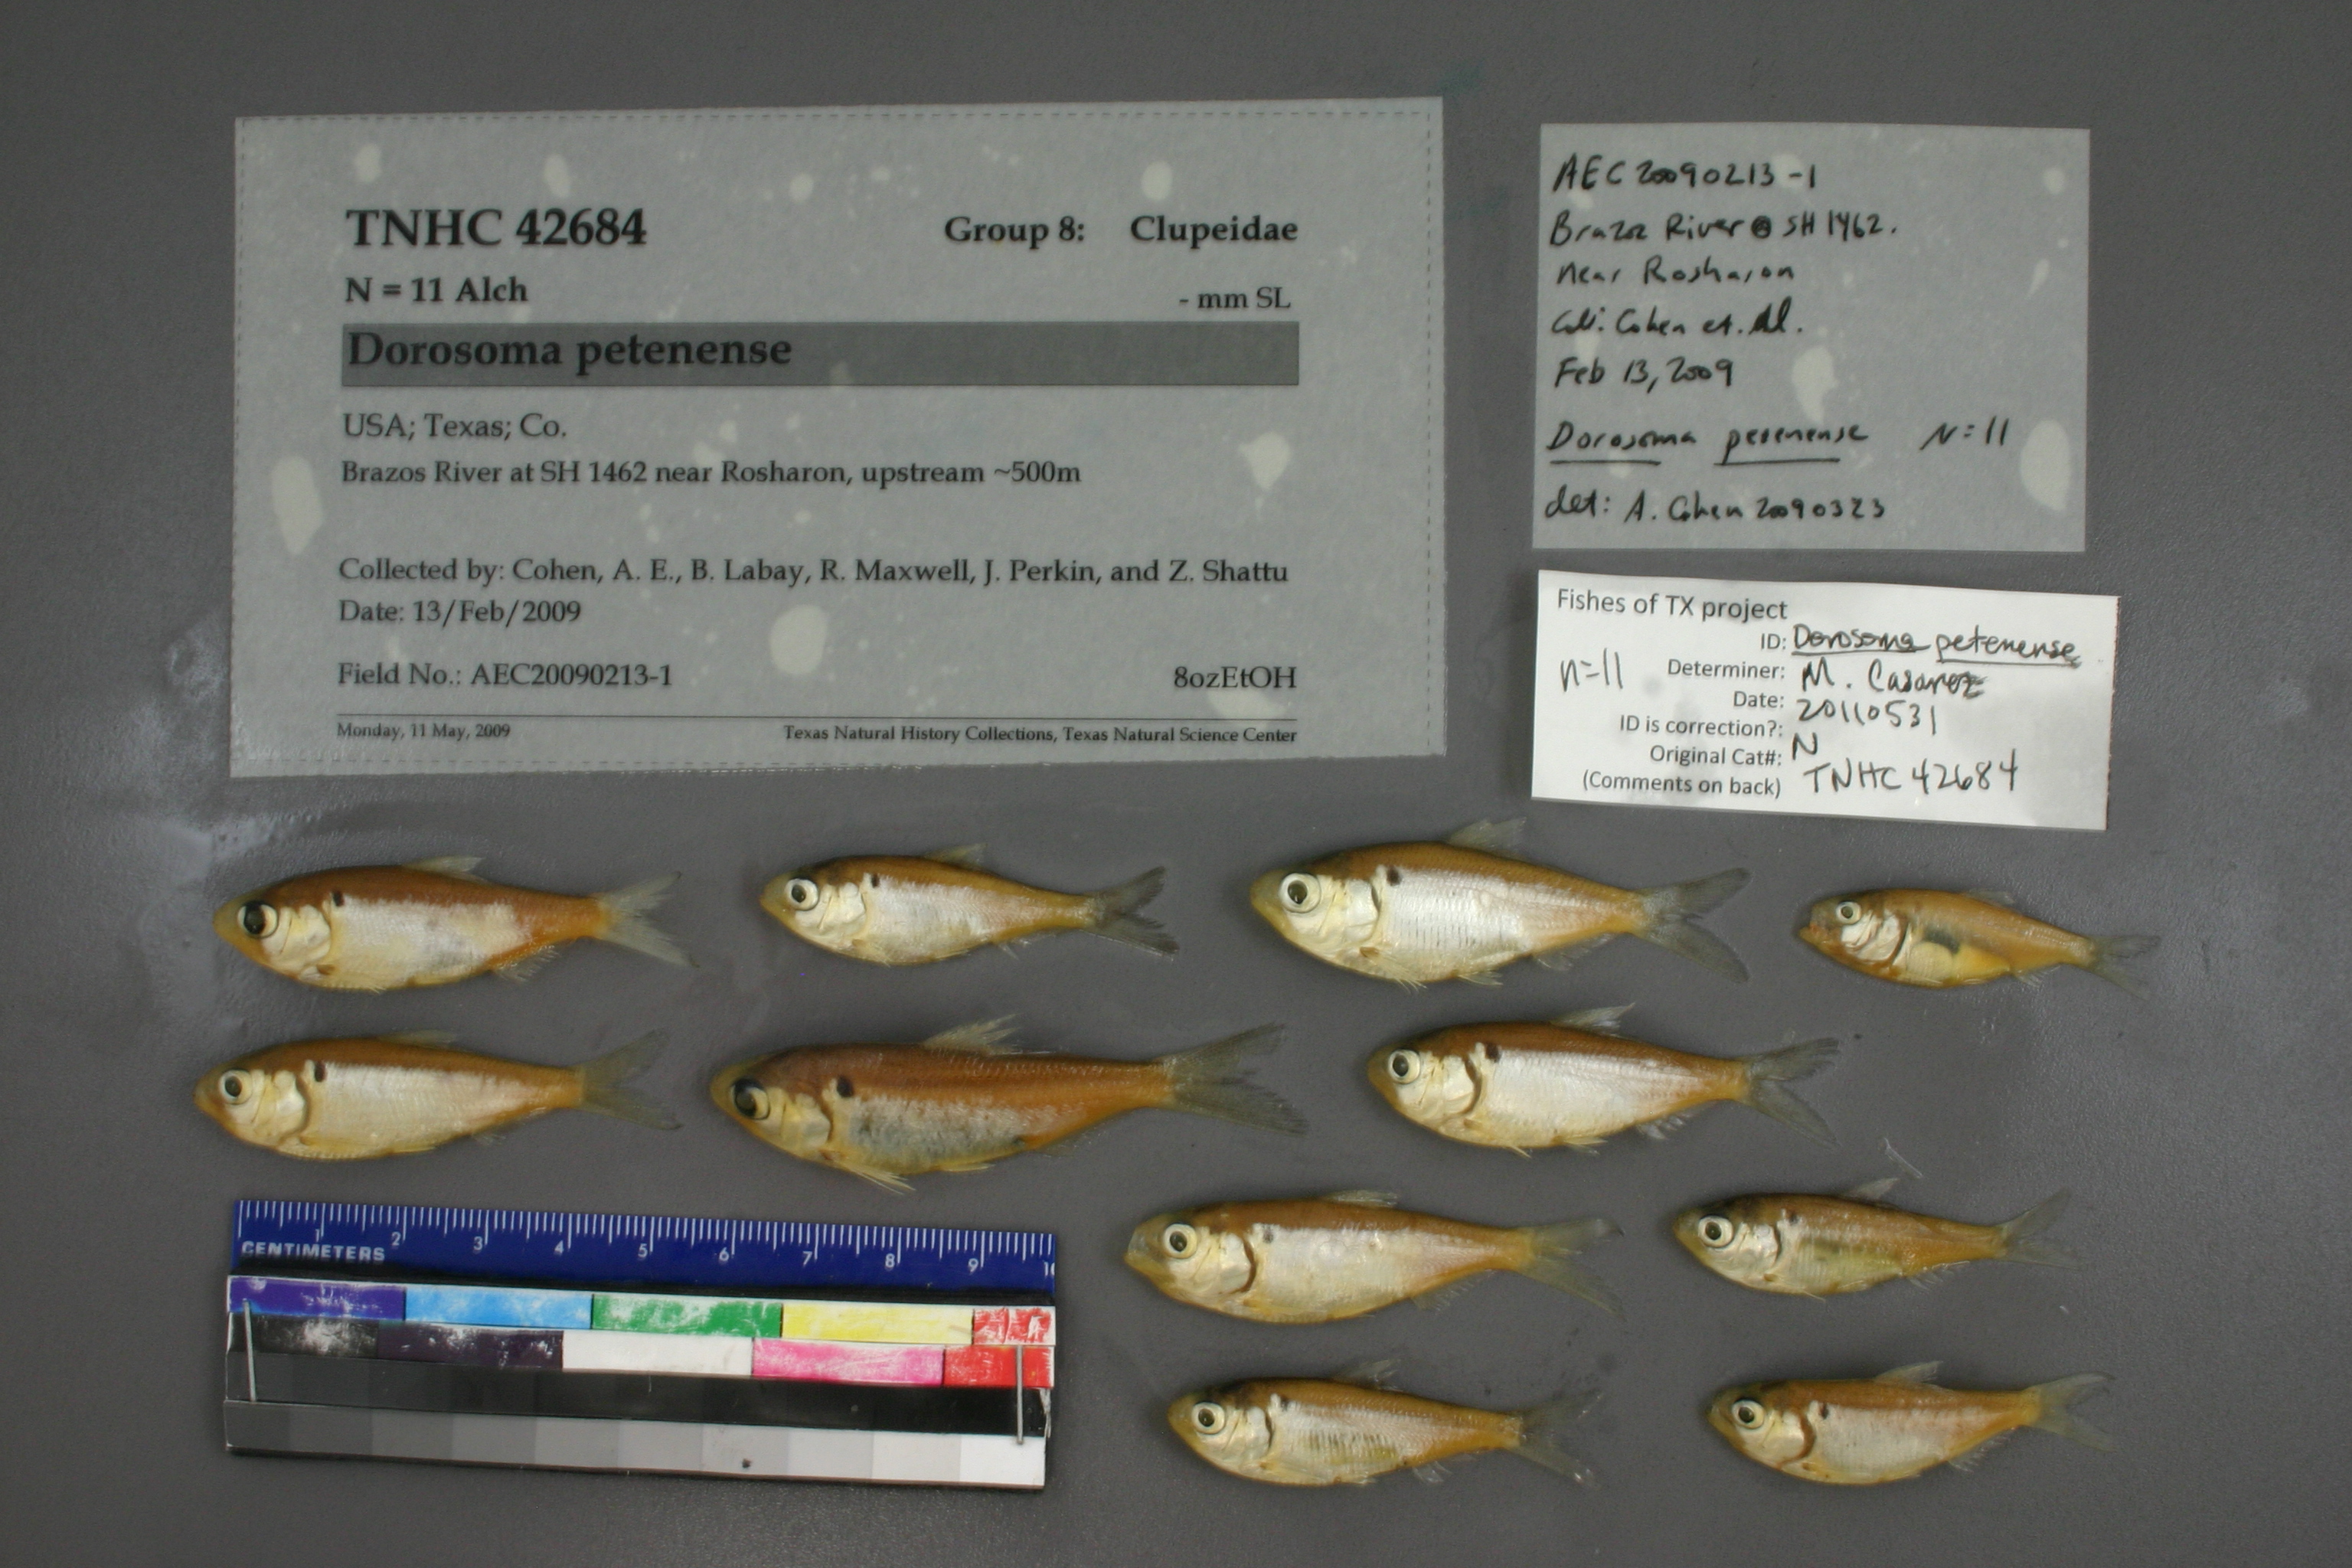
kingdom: Animalia
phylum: Chordata
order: Clupeiformes
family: Clupeidae
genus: Dorosoma
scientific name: Dorosoma petenense
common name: Threadfin shad
